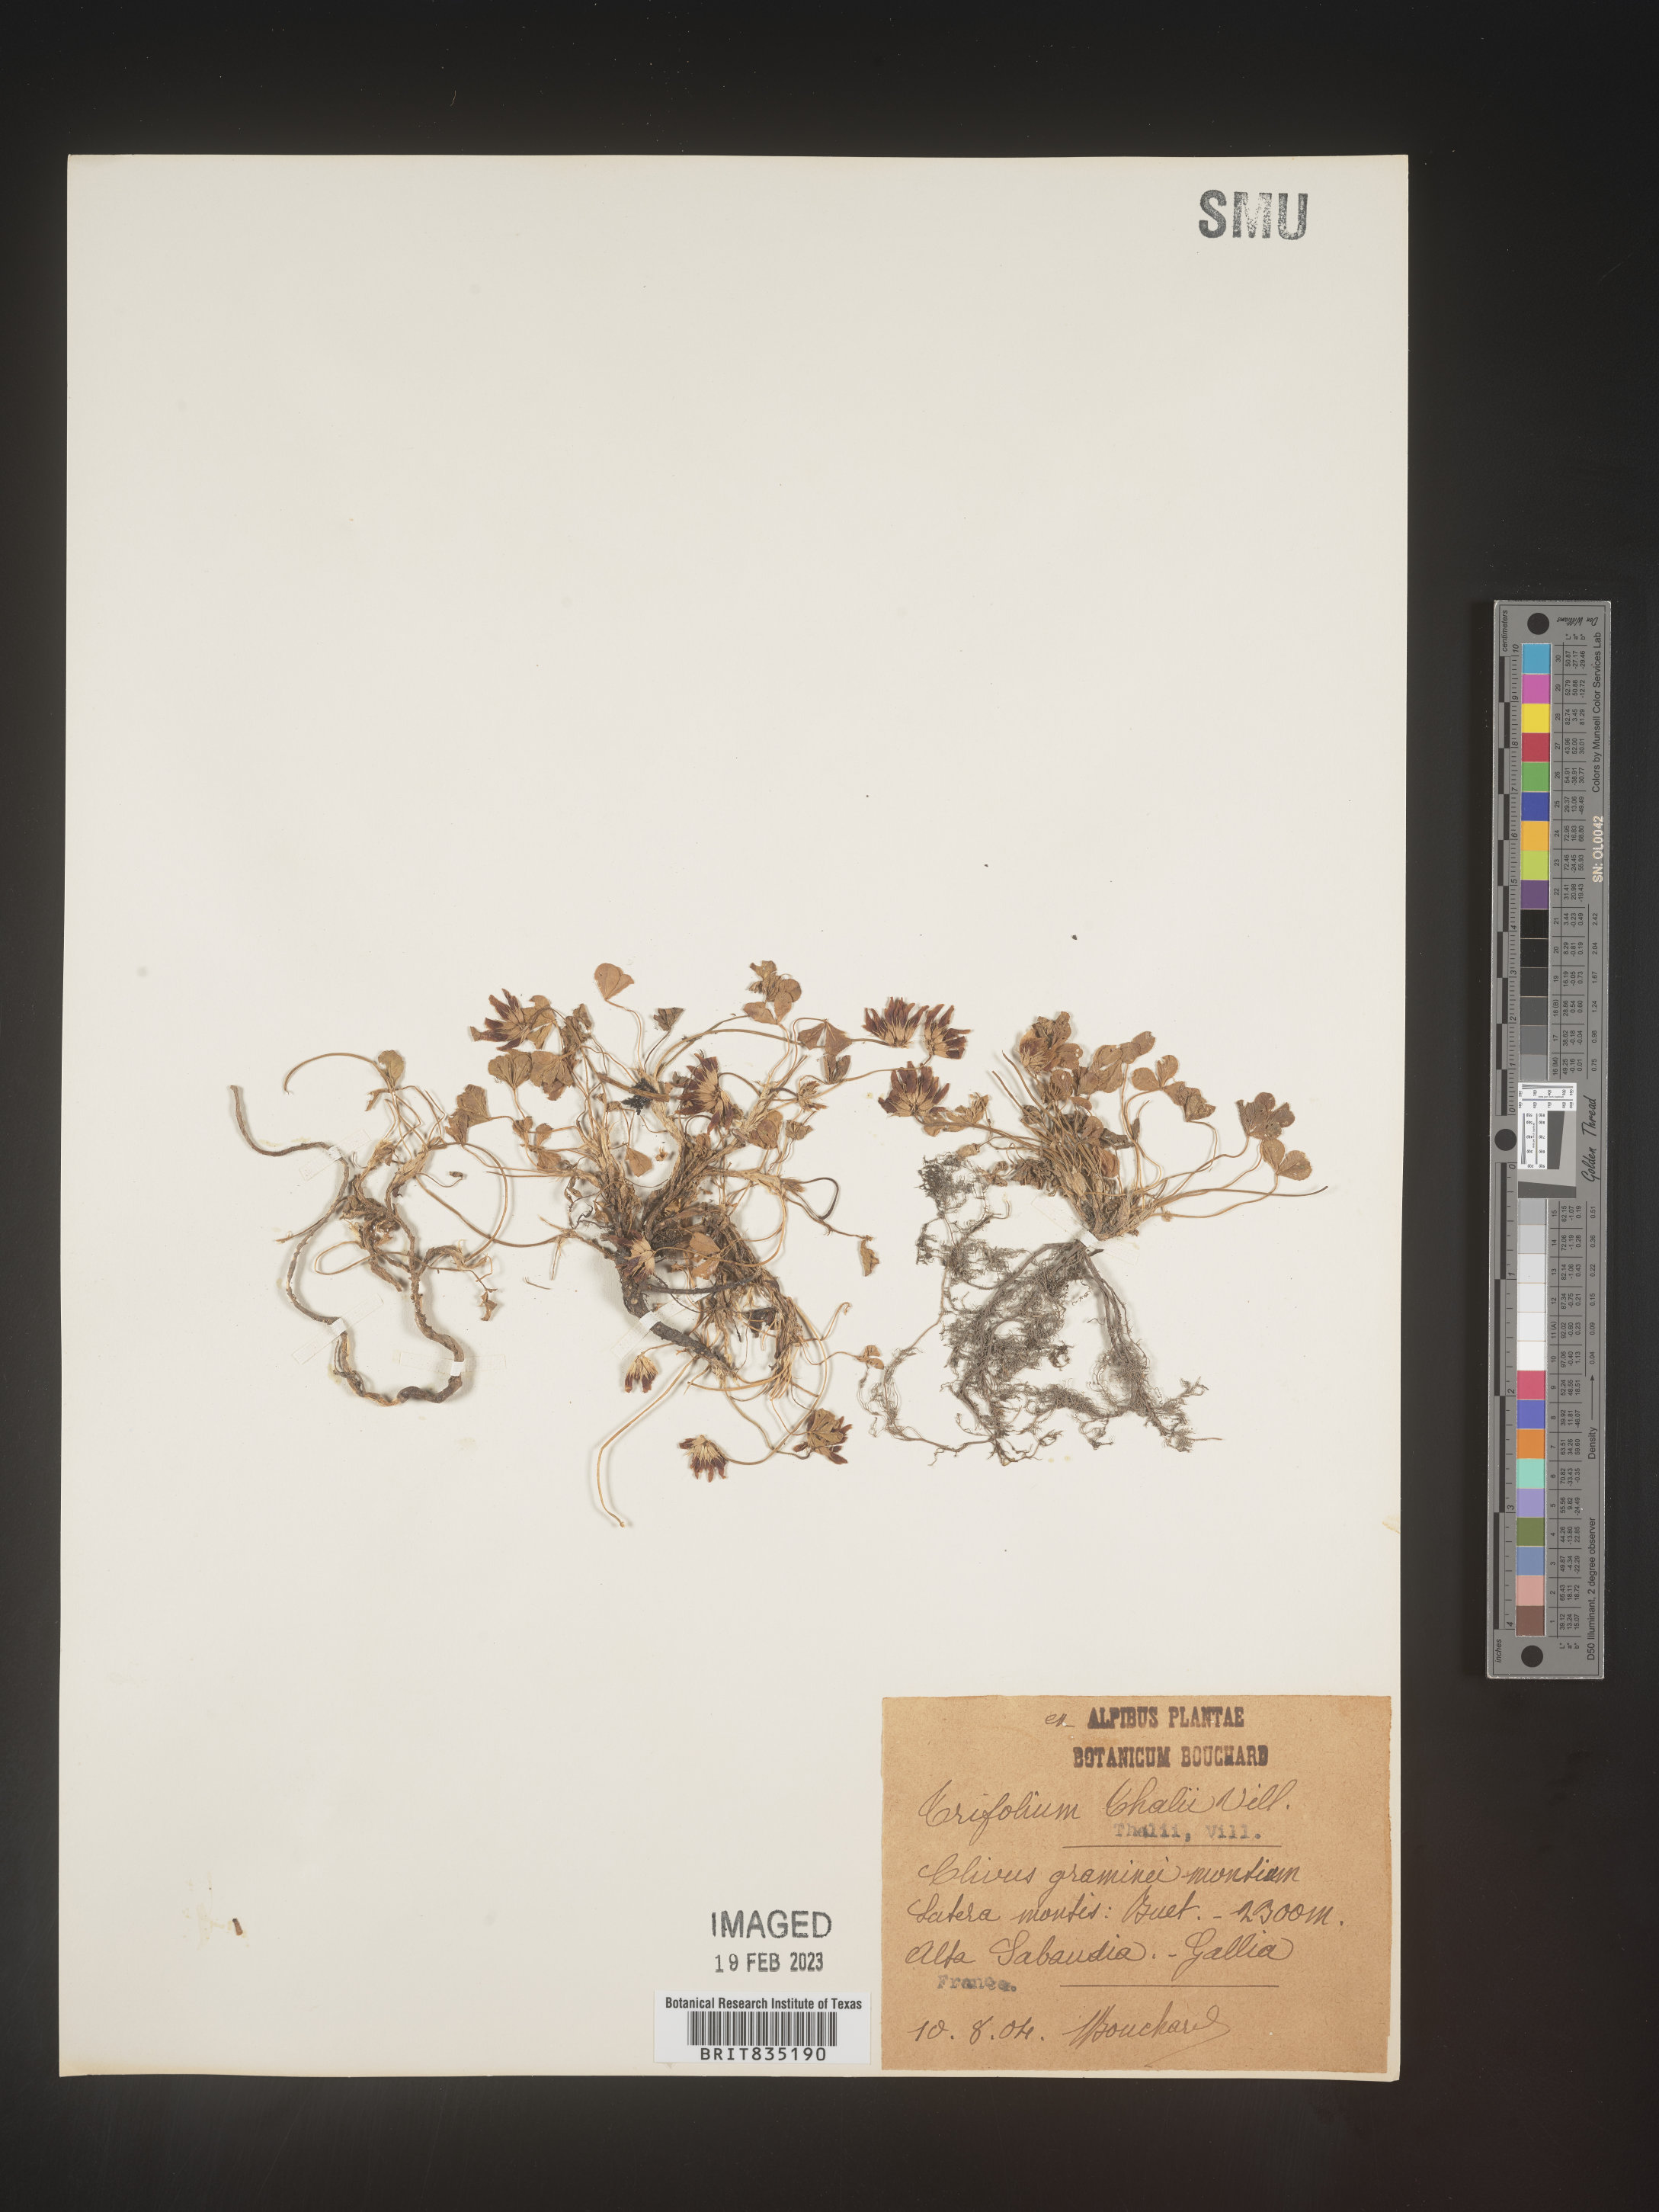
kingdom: Plantae
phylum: Tracheophyta
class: Magnoliopsida
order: Fabales
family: Fabaceae
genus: Trifolium
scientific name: Trifolium
